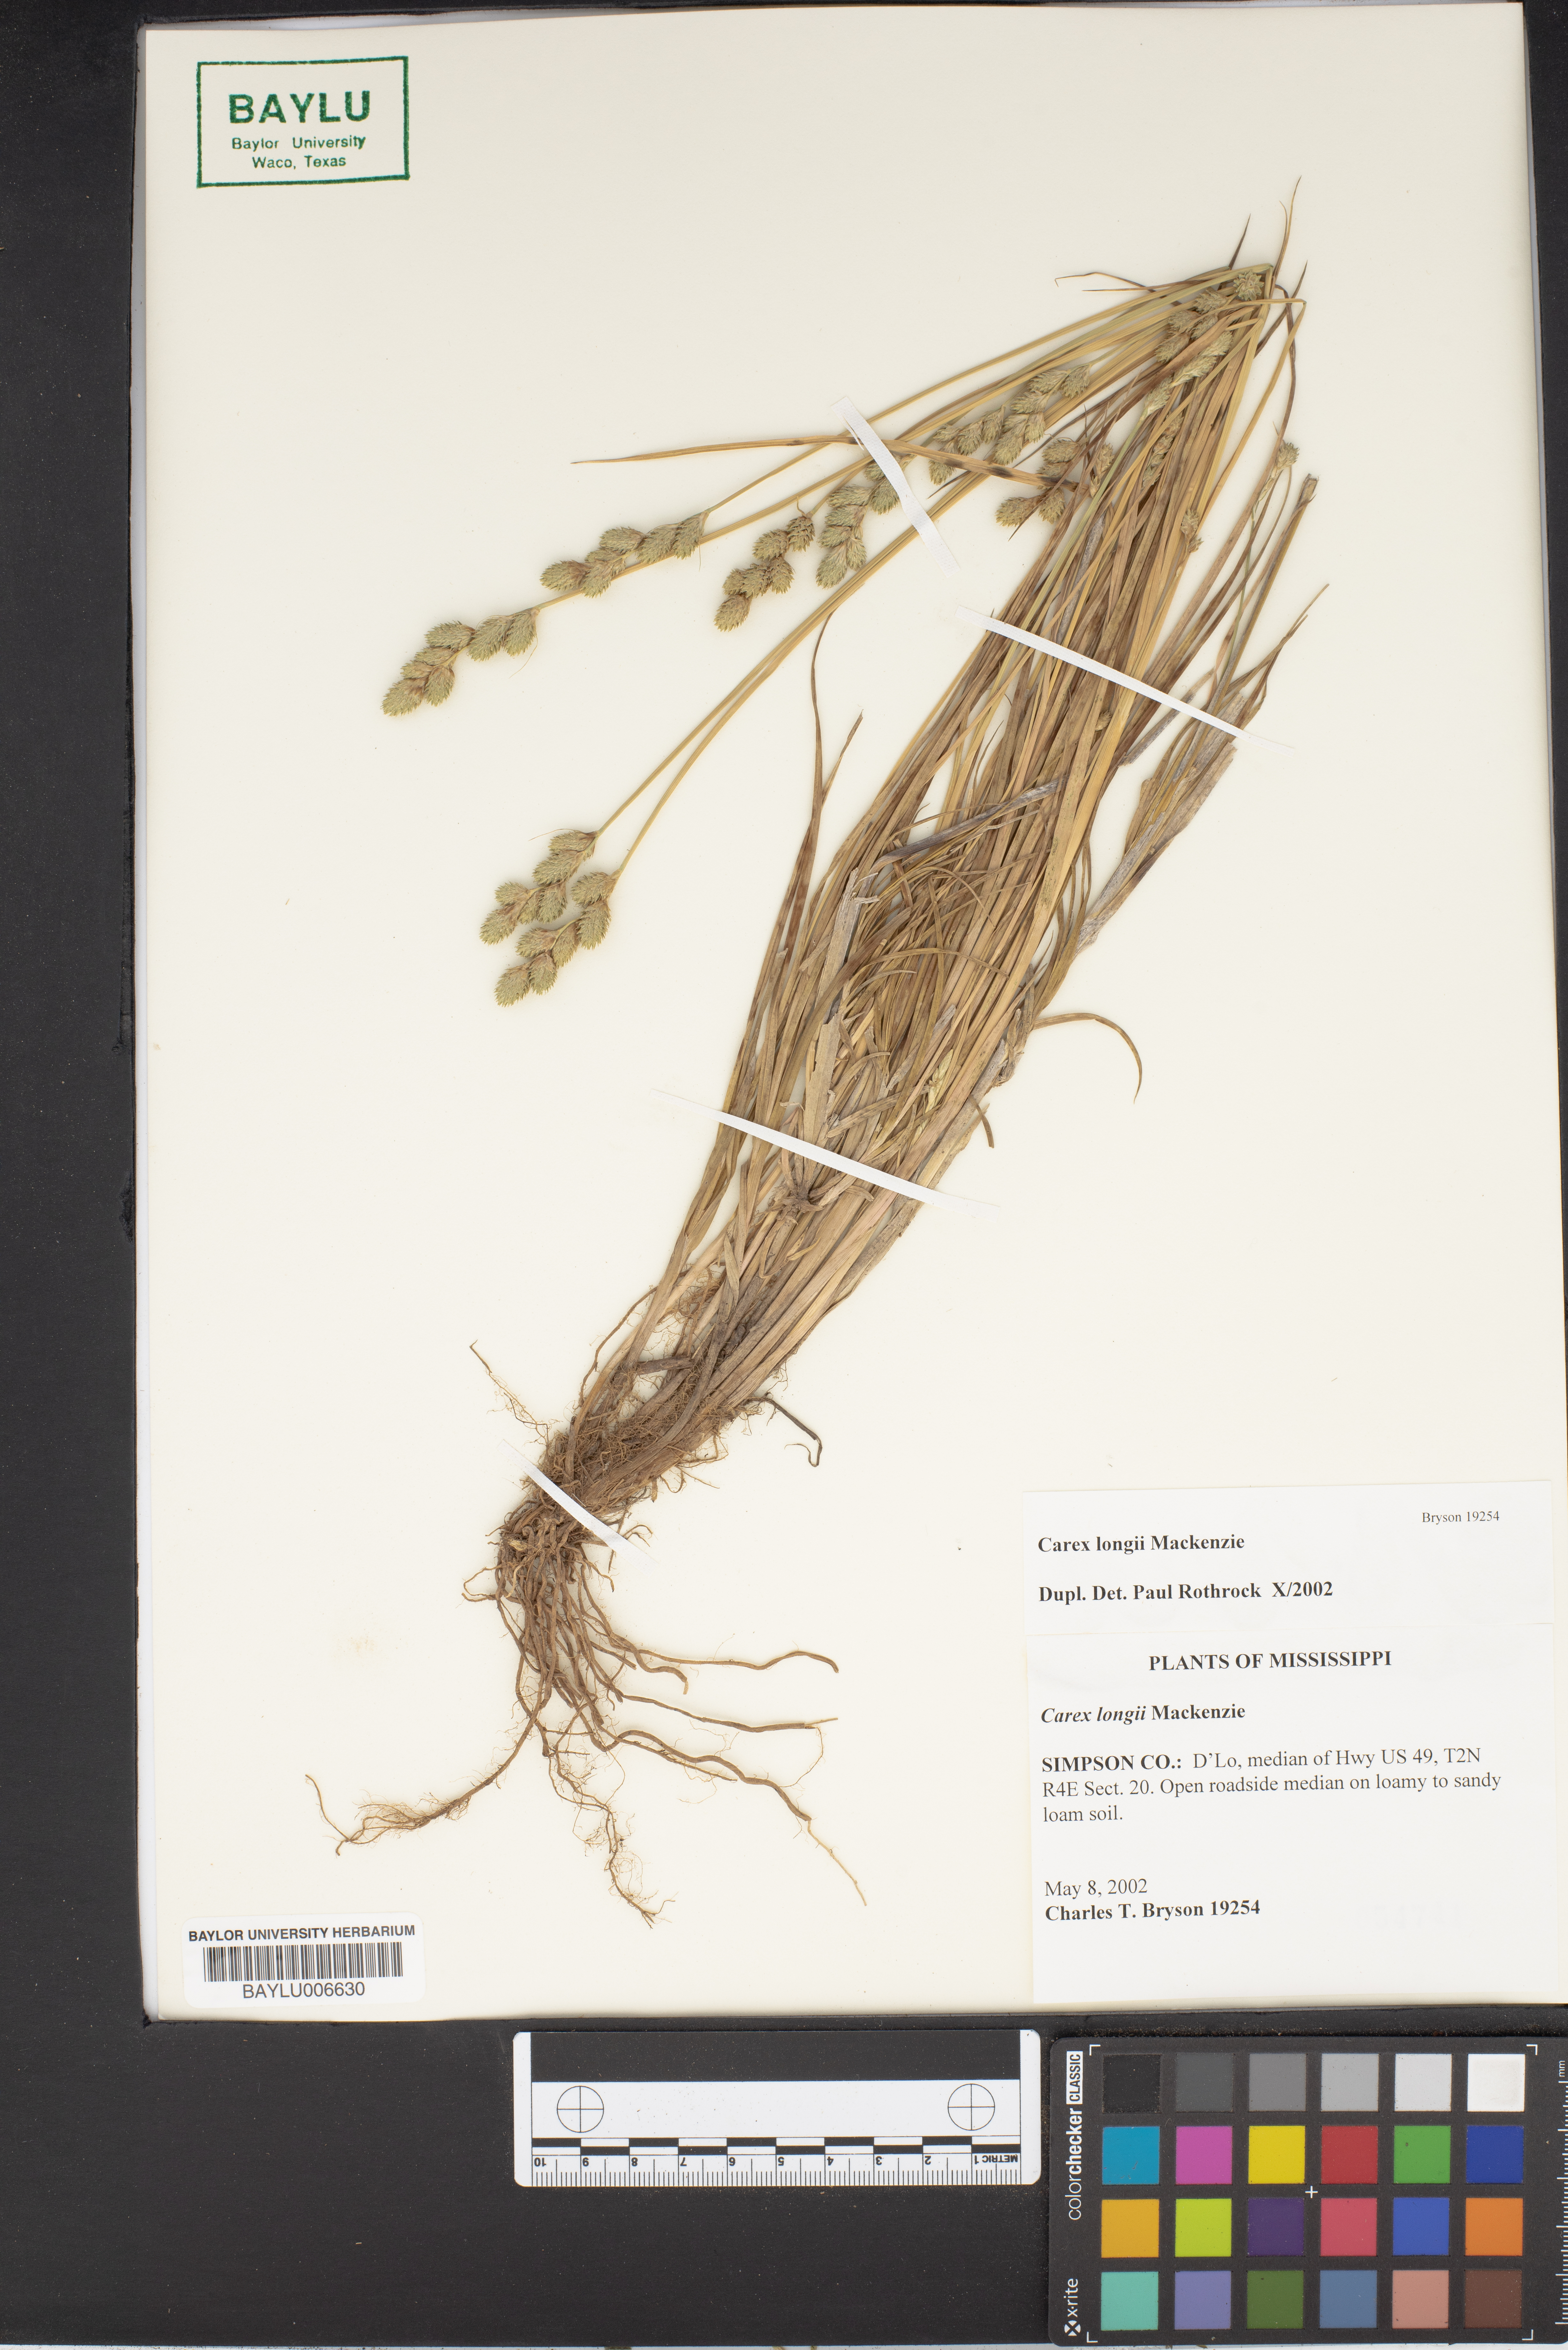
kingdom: Plantae
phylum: Tracheophyta
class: Liliopsida
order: Poales
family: Cyperaceae
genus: Carex
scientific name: Carex longii
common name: Long's sedge
